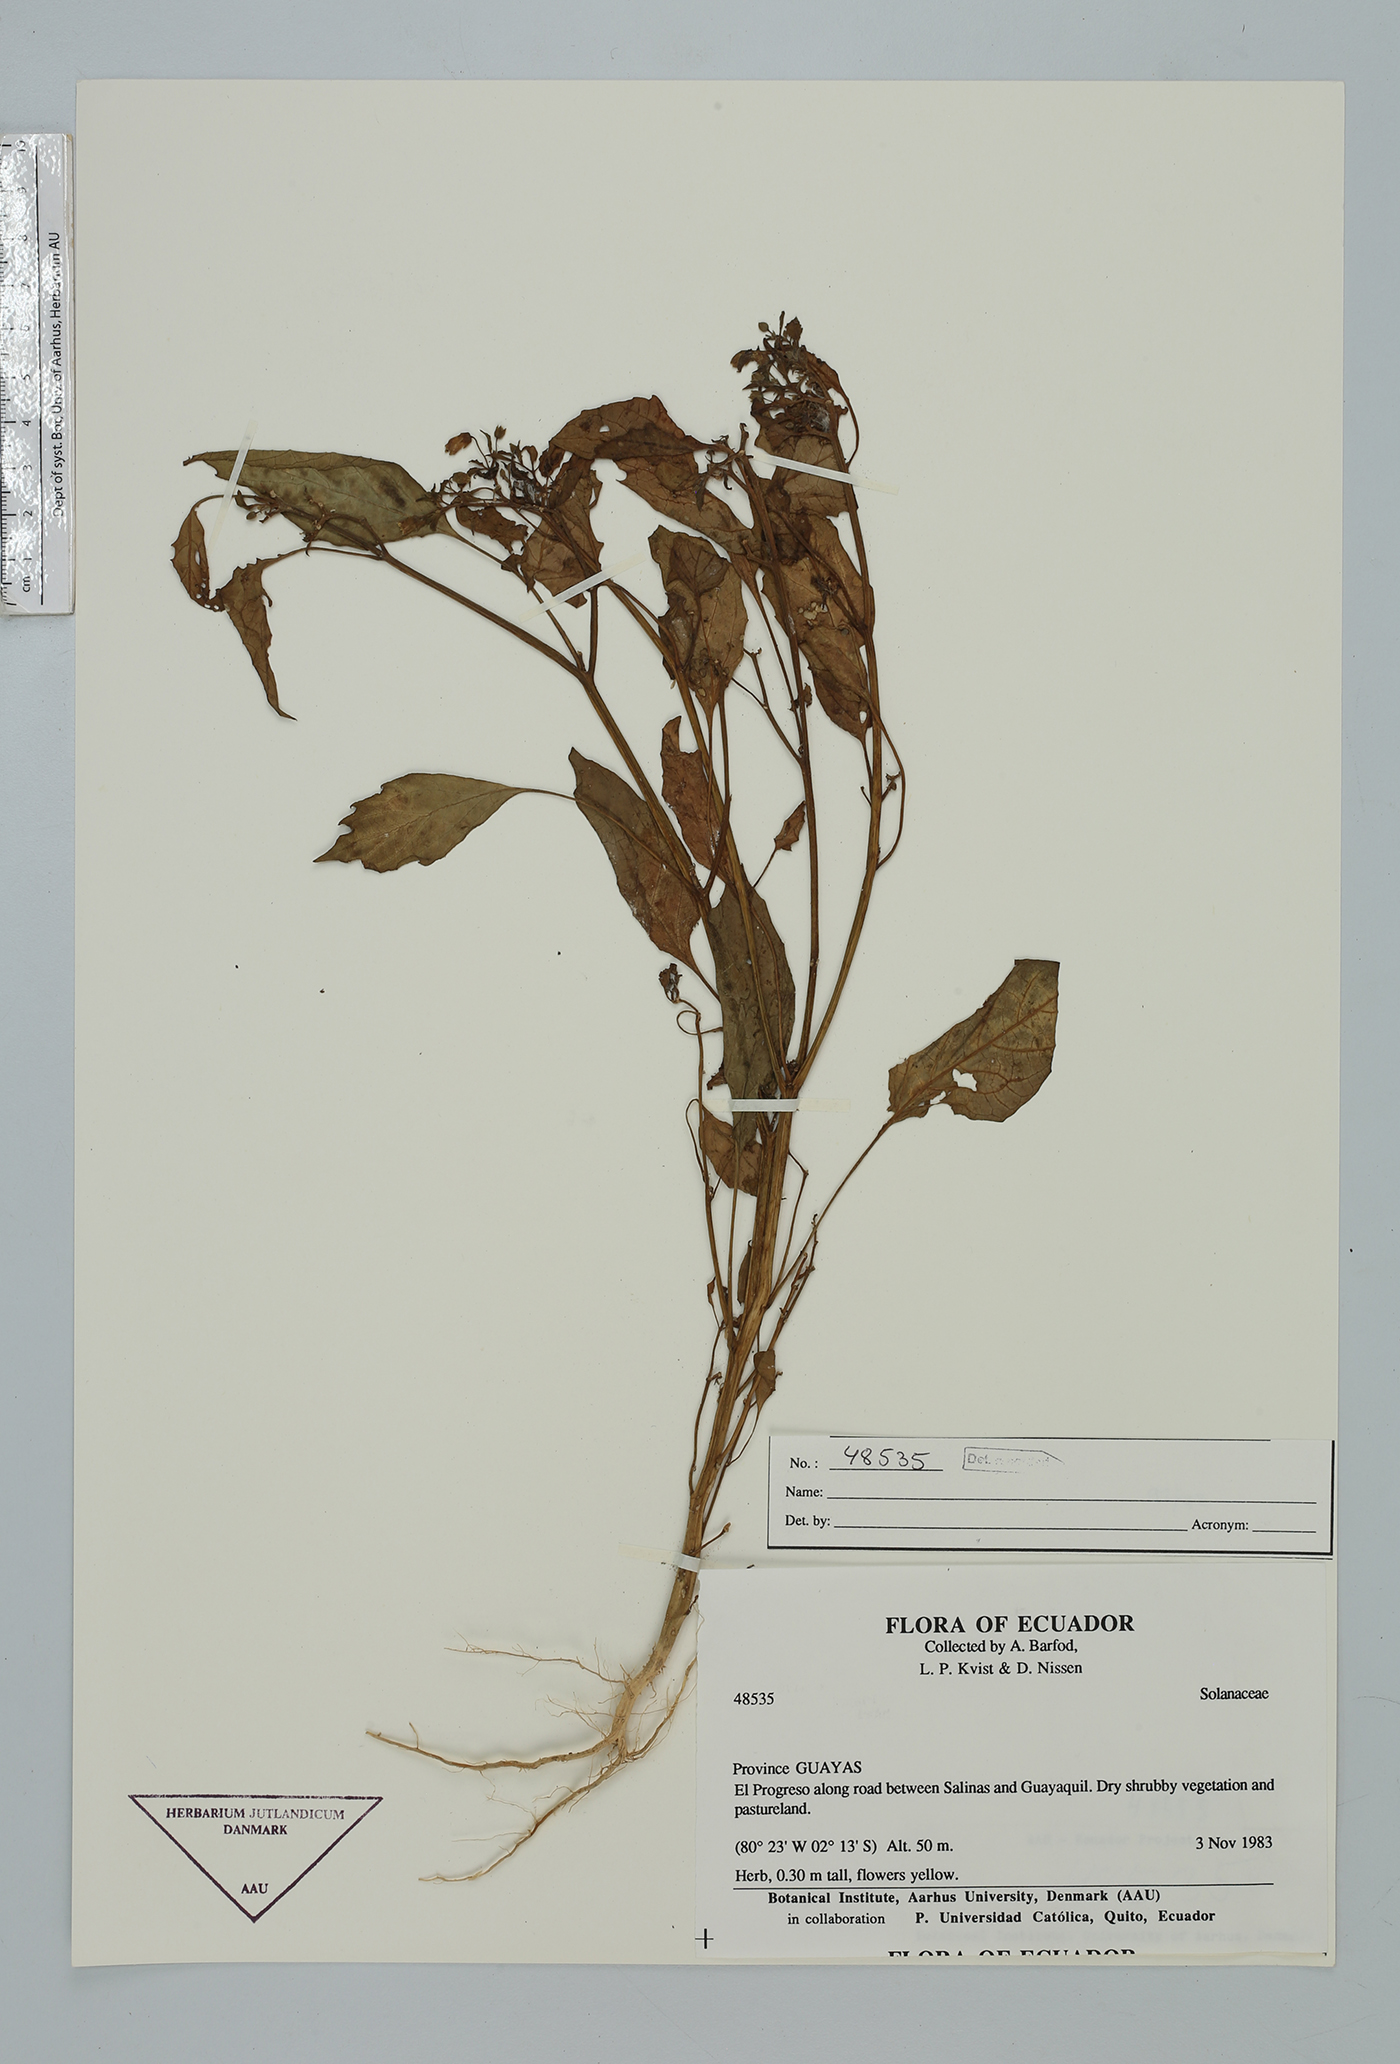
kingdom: Plantae
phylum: Tracheophyta
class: Magnoliopsida
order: Solanales
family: Solanaceae
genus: Capsicum
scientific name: Capsicum
